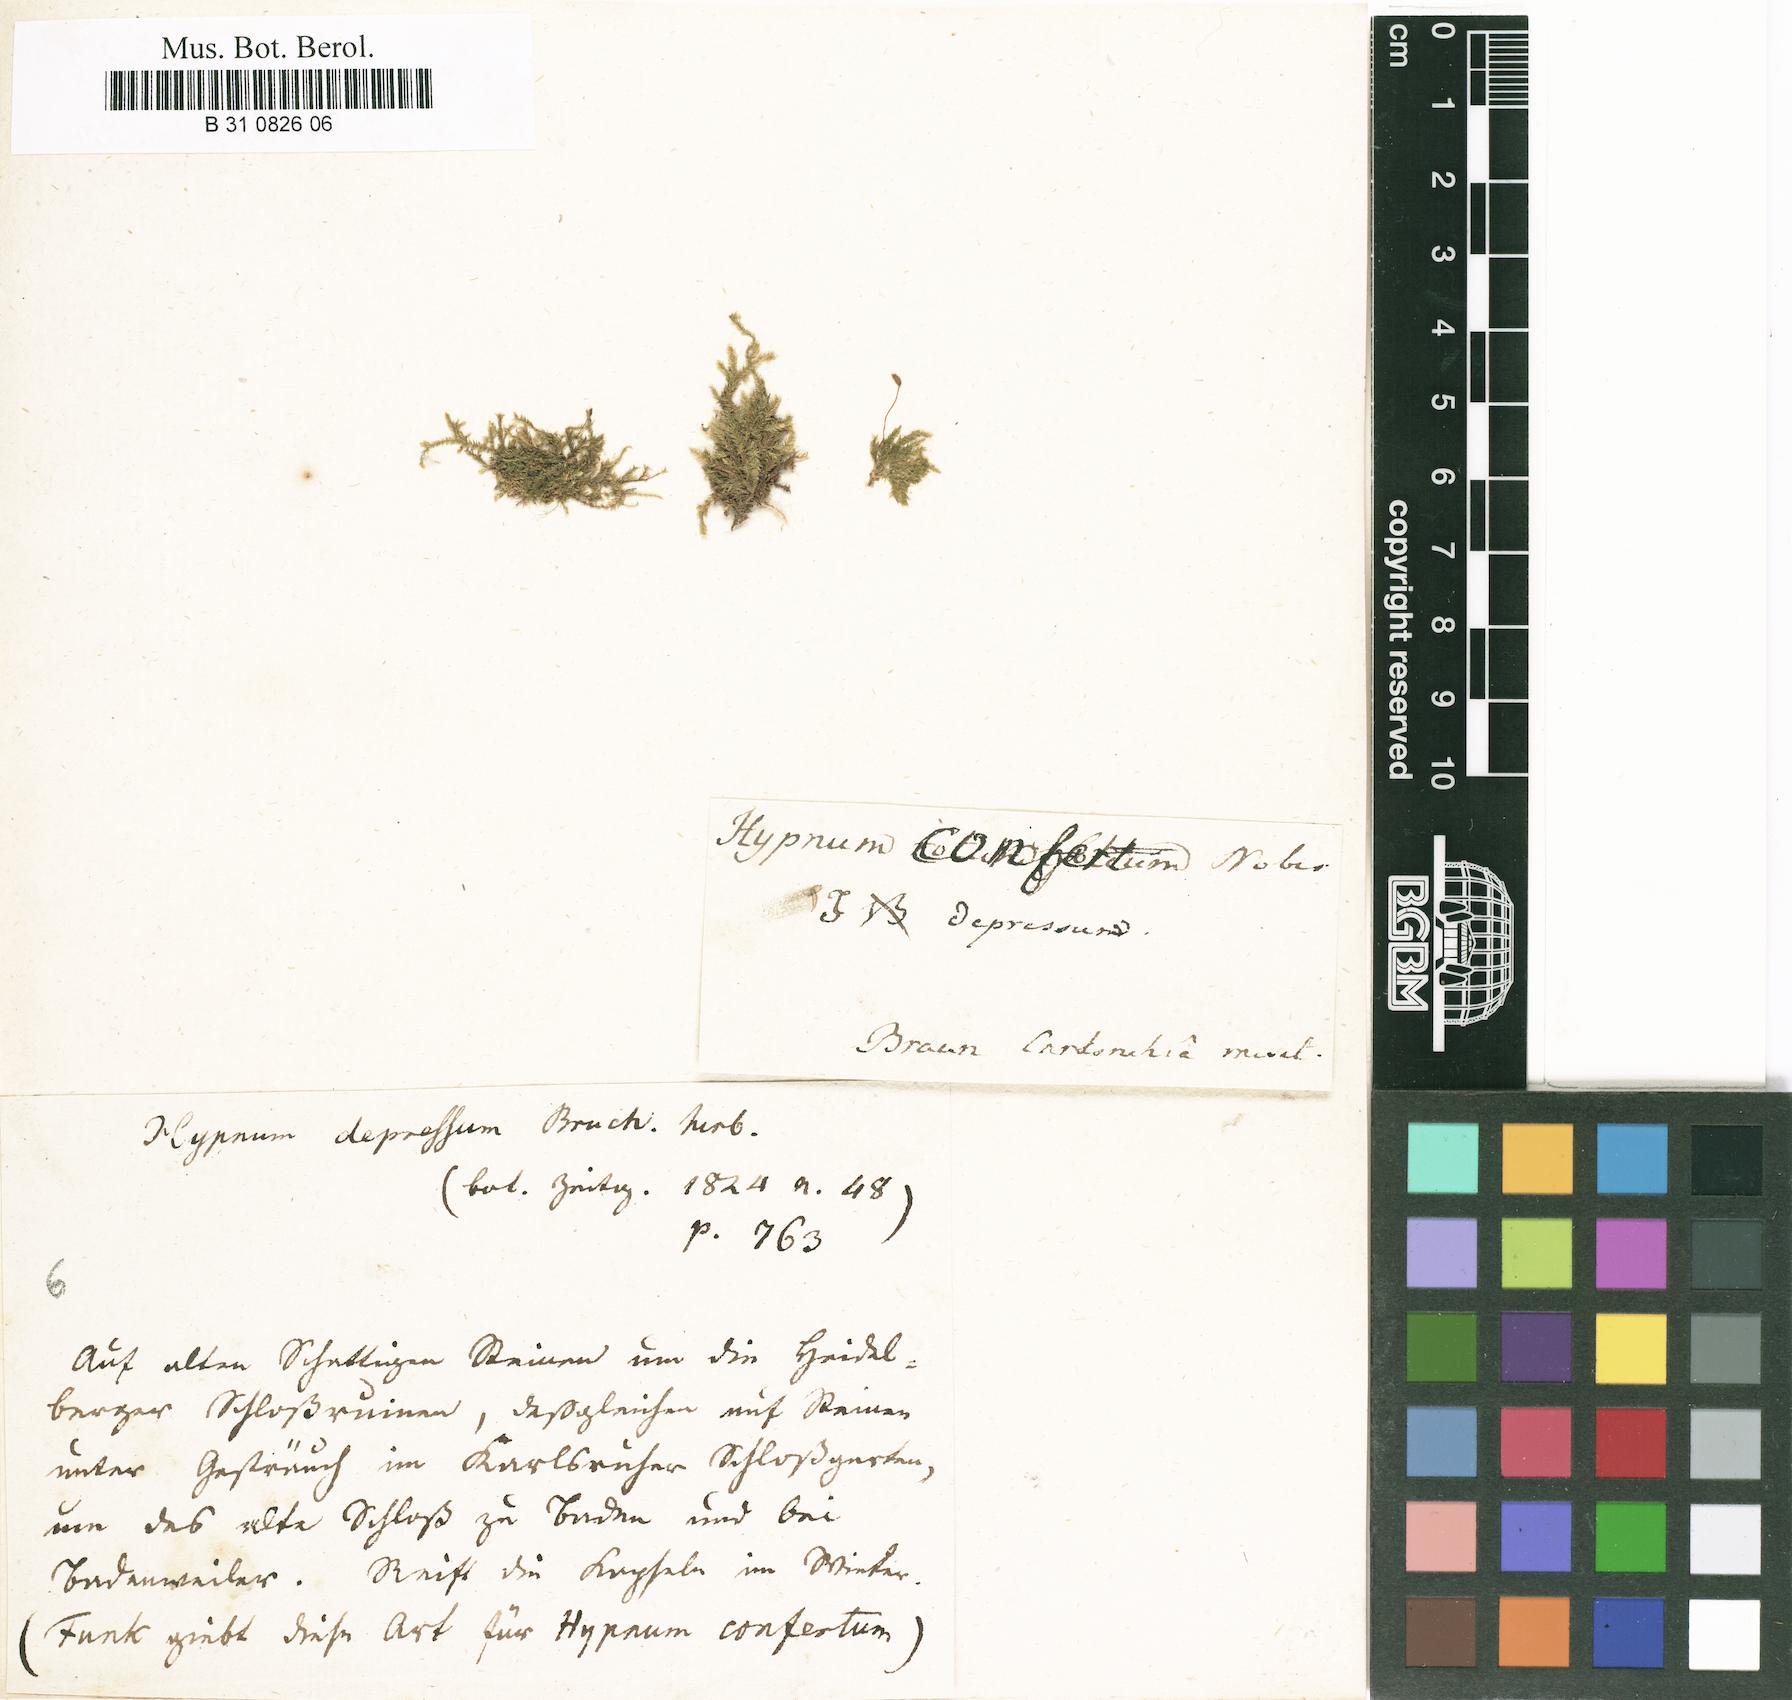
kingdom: Plantae
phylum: Bryophyta
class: Bryopsida
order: Hypnales
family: Brachytheciaceae
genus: Rhynchostegium
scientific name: Rhynchostegium confertum
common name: Clustered feather-moss
